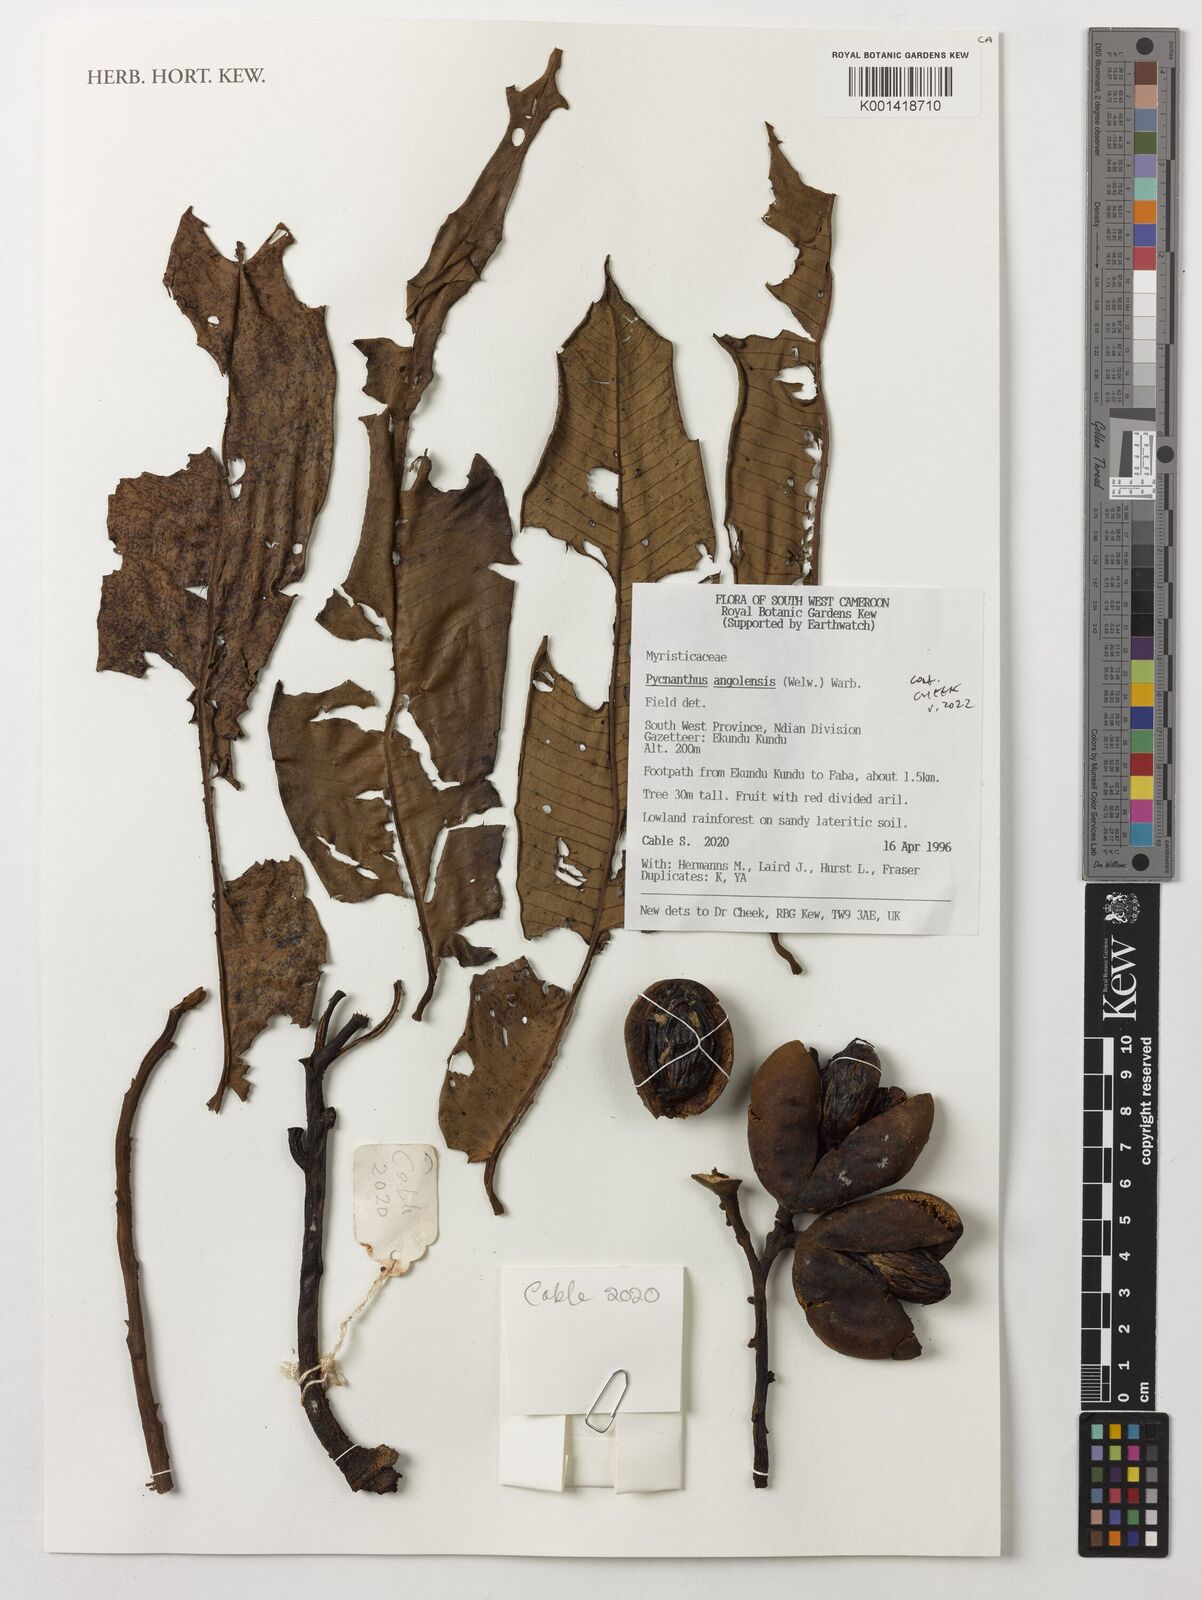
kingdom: Plantae
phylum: Tracheophyta
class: Magnoliopsida
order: Magnoliales
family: Myristicaceae
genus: Pycnanthus
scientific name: Pycnanthus angolensis
